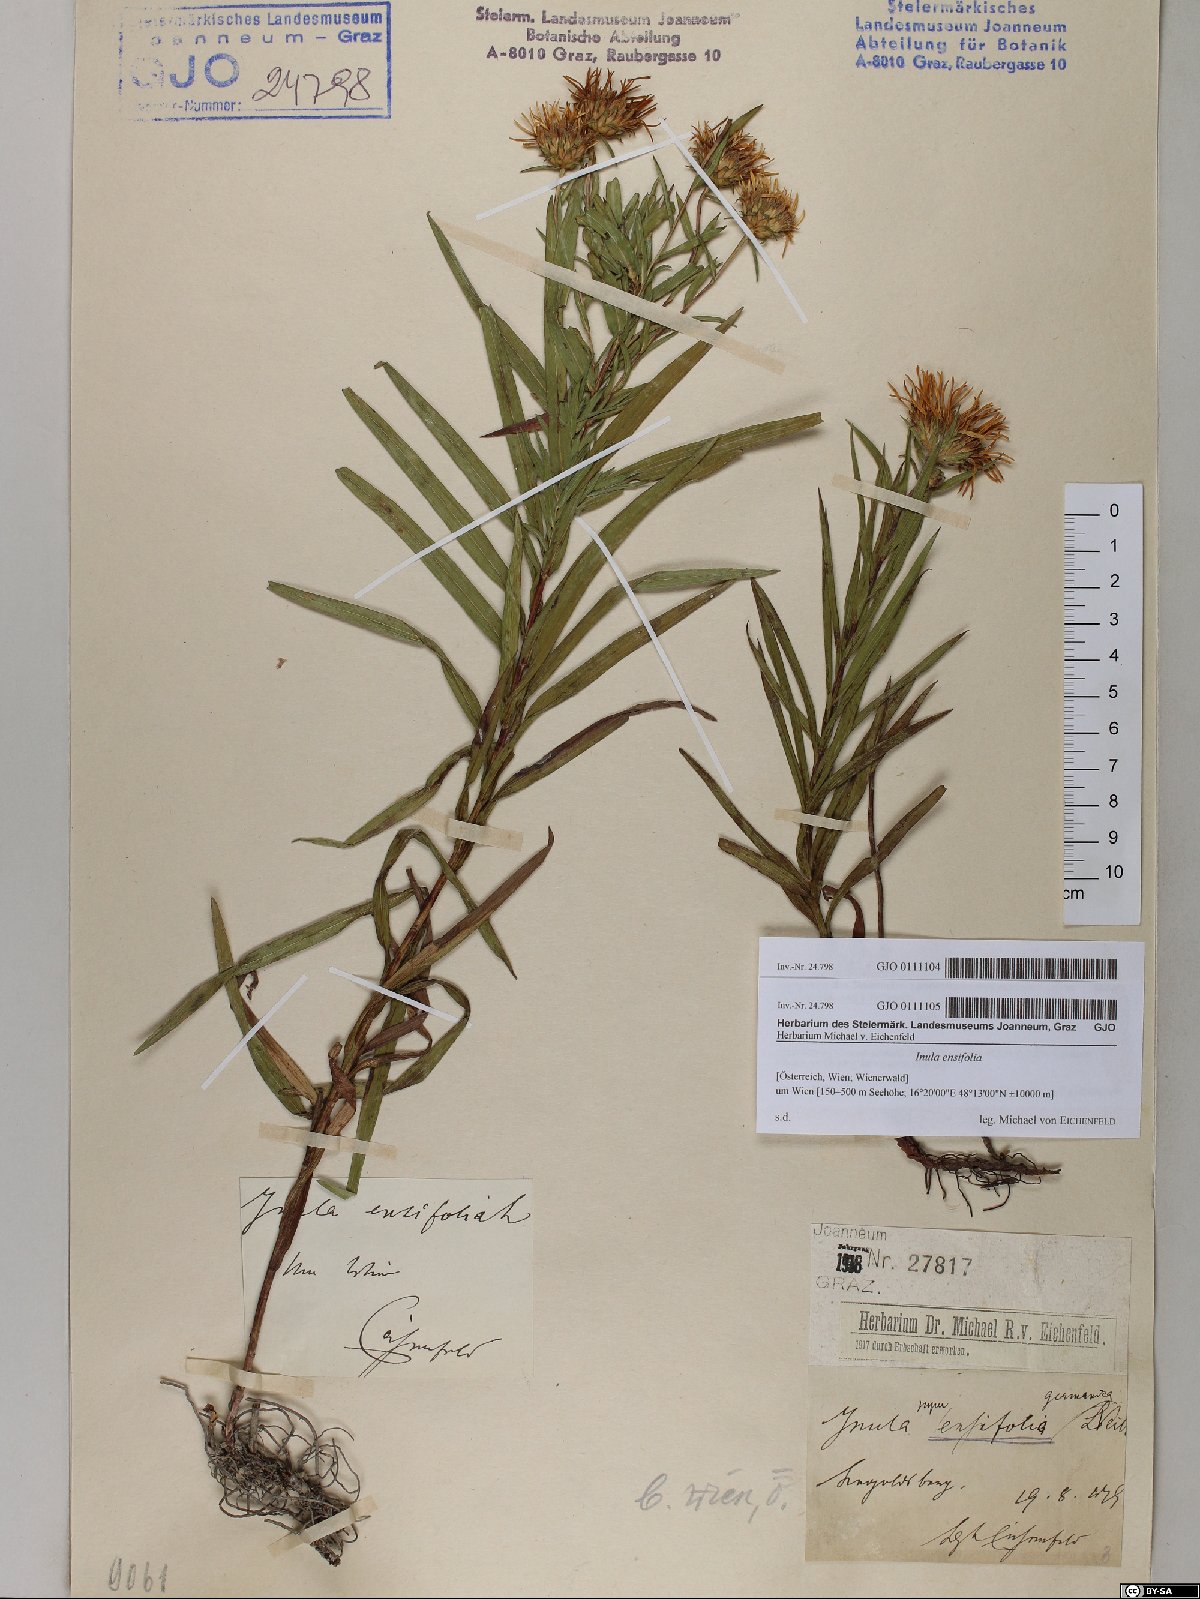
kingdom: Plantae
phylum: Tracheophyta
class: Magnoliopsida
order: Asterales
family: Asteraceae
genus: Pentanema
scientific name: Pentanema ensifolium
